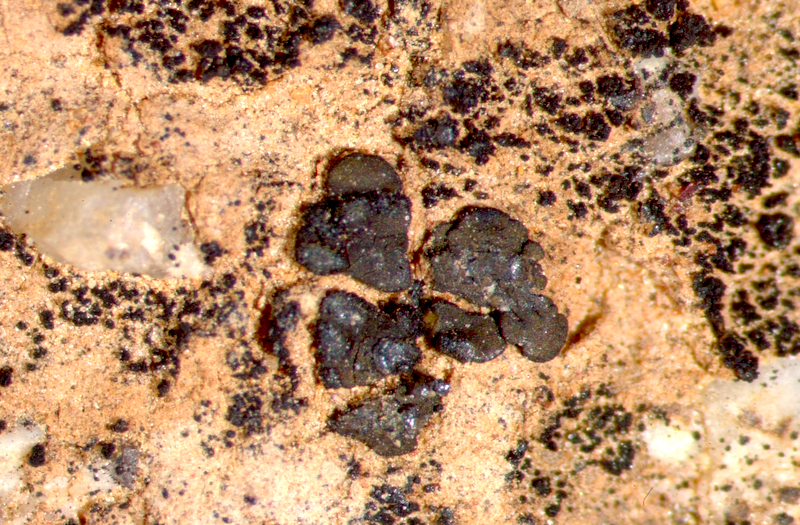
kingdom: Fungi
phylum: Ascomycota
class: Lichinomycetes
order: Lichinales
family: Lichinaceae
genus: Peccania
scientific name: Peccania
